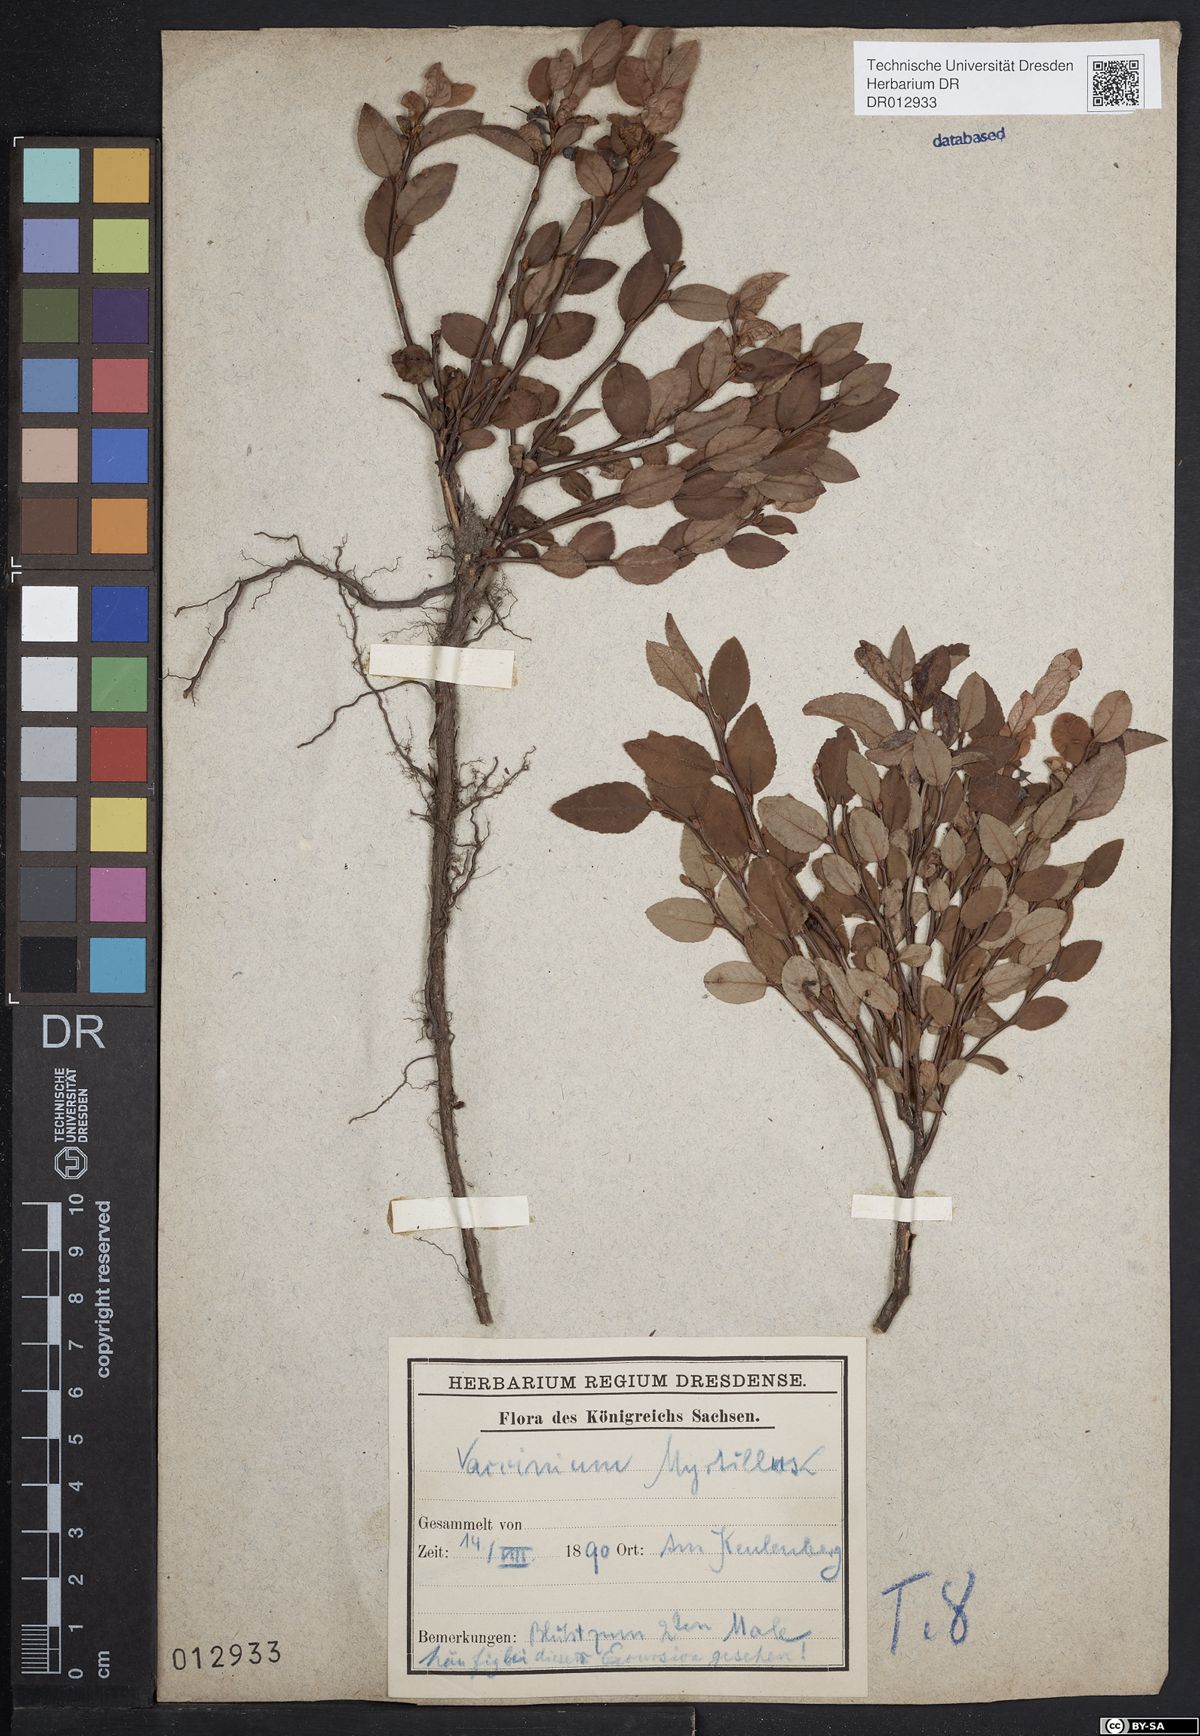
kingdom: Plantae
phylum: Tracheophyta
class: Magnoliopsida
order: Ericales
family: Ericaceae
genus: Vaccinium
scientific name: Vaccinium myrtillus
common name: Bilberry
